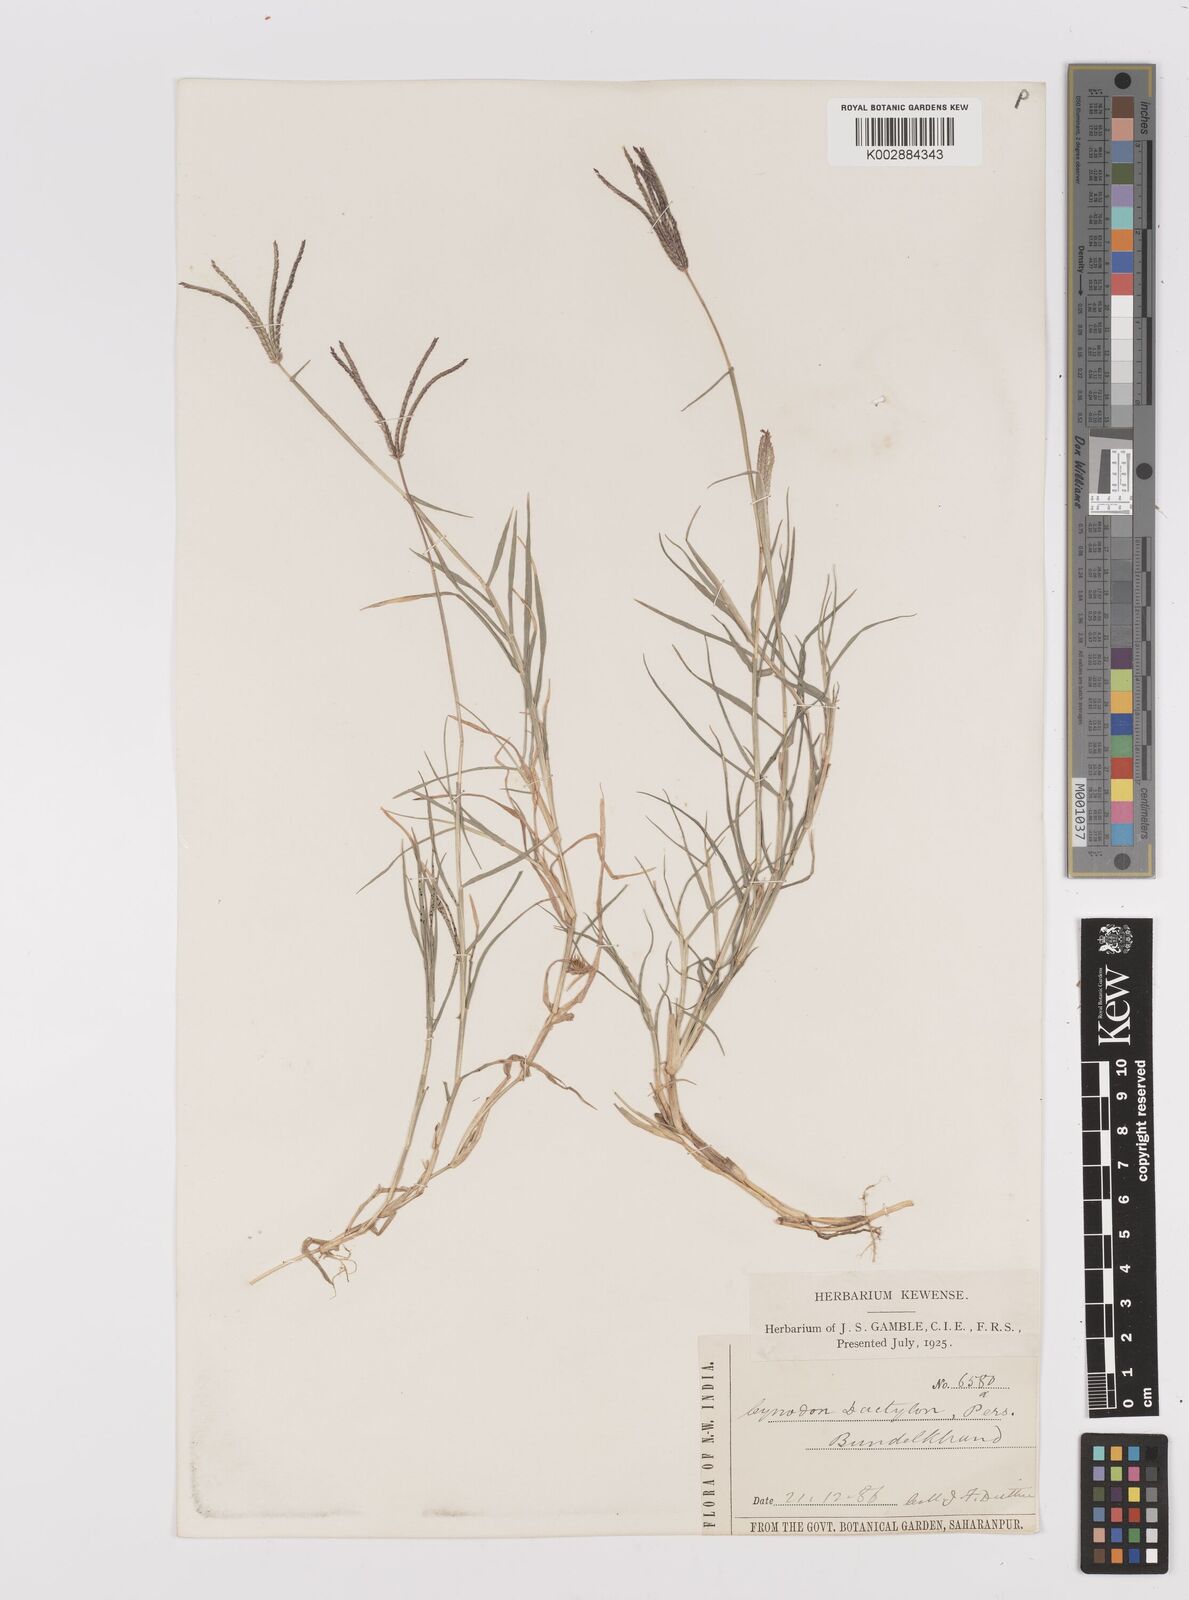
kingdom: Plantae
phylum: Tracheophyta
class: Liliopsida
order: Poales
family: Poaceae
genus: Cynodon
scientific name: Cynodon dactylon
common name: Bermuda grass
